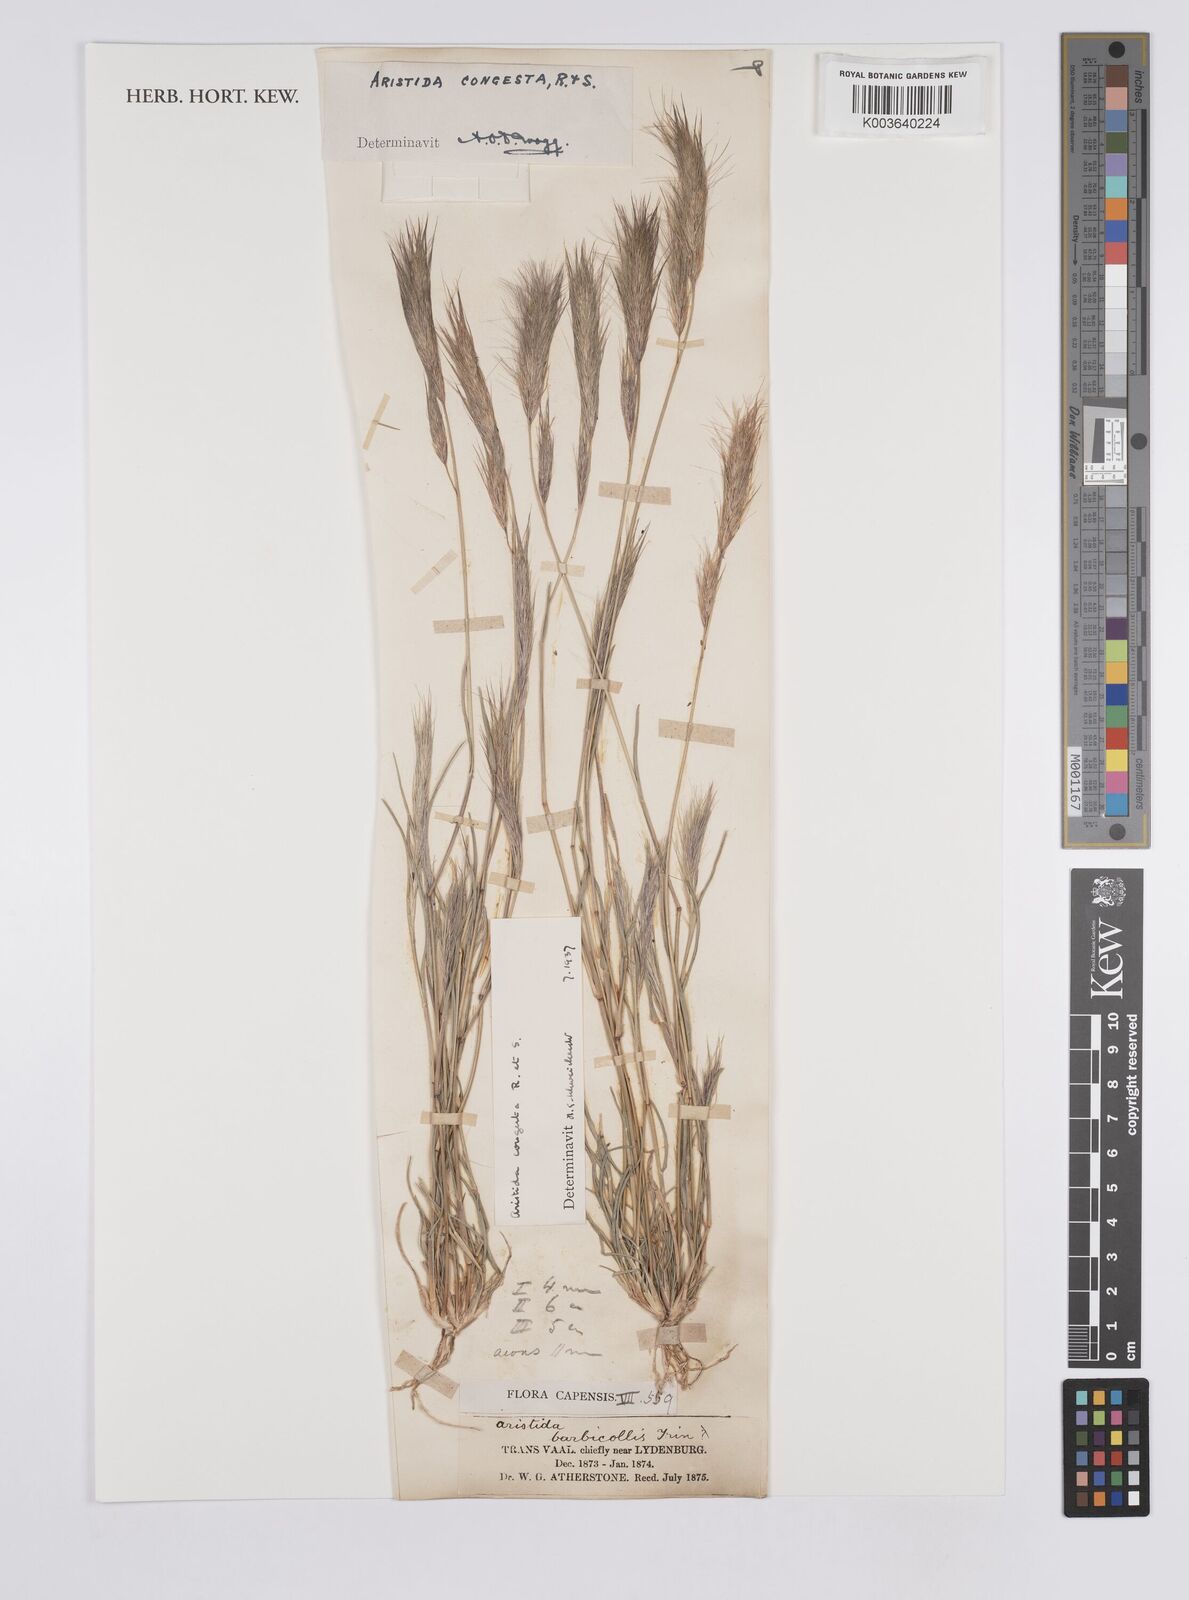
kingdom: Plantae
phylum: Tracheophyta
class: Liliopsida
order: Poales
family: Poaceae
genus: Aristida
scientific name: Aristida congesta
